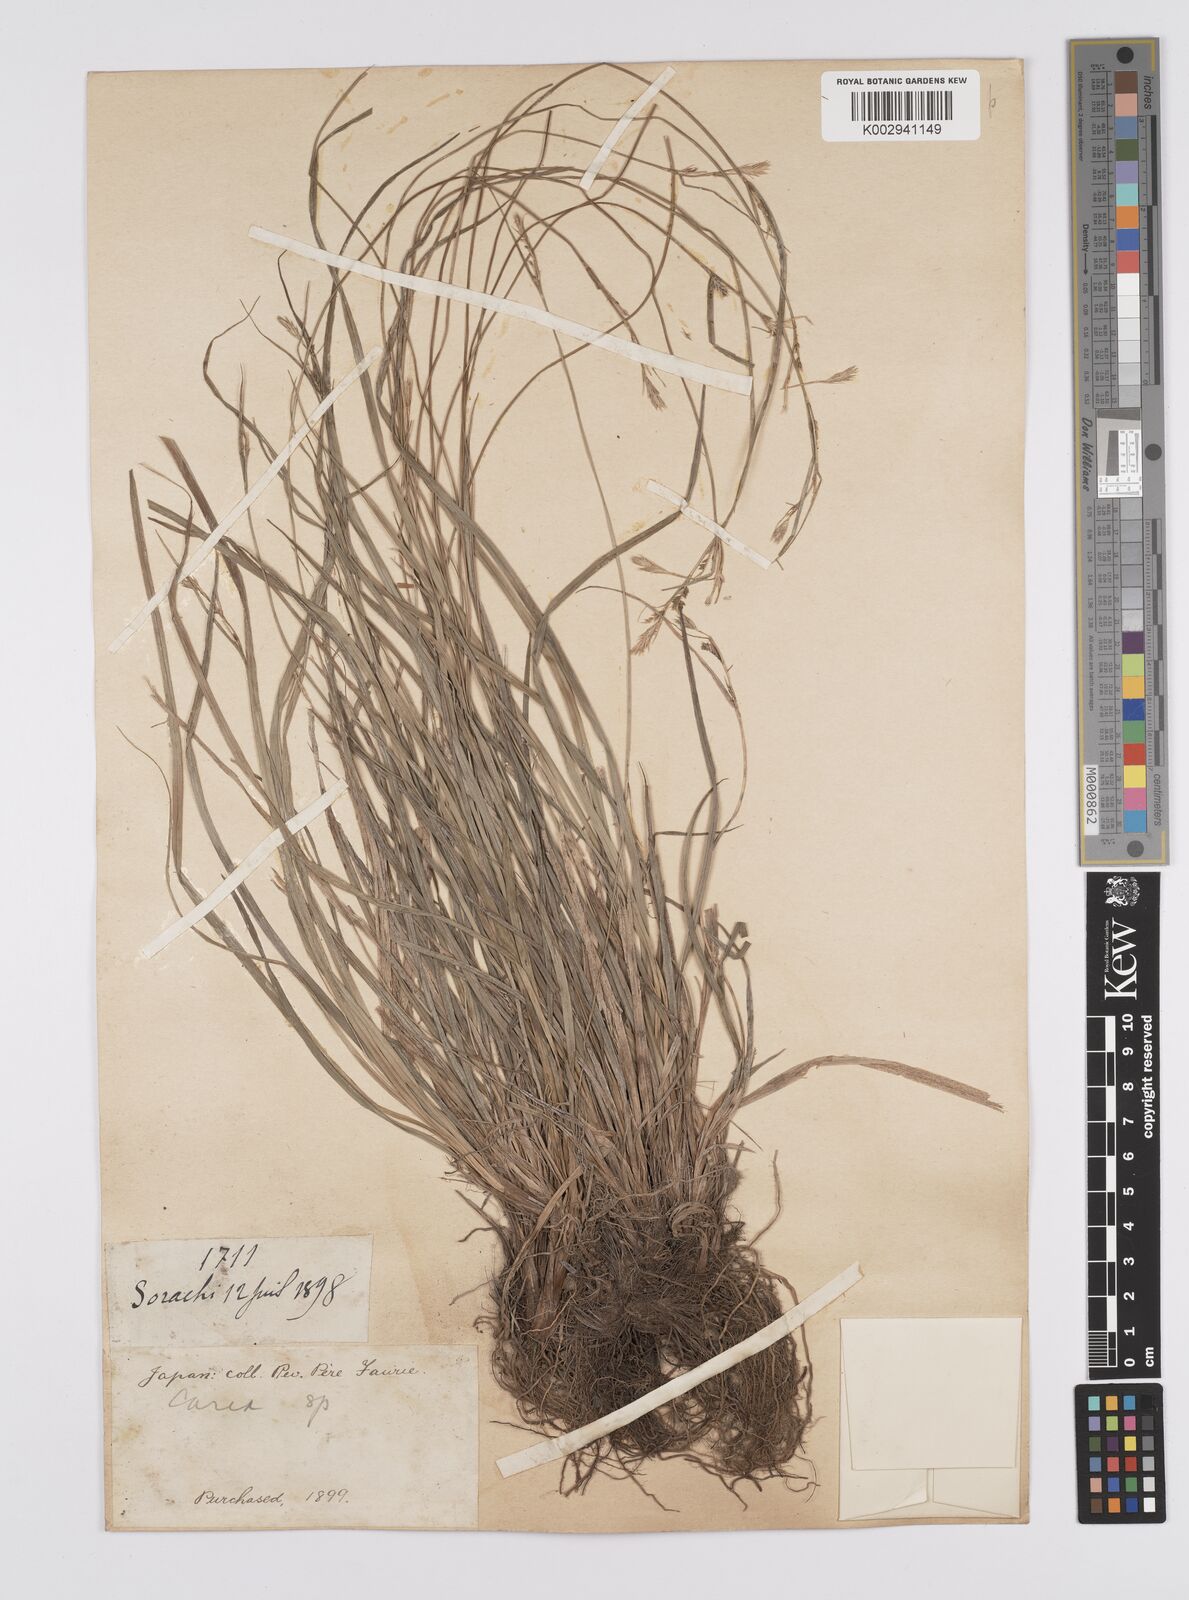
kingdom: Plantae
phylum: Tracheophyta
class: Liliopsida
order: Poales
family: Cyperaceae
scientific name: Cyperaceae
